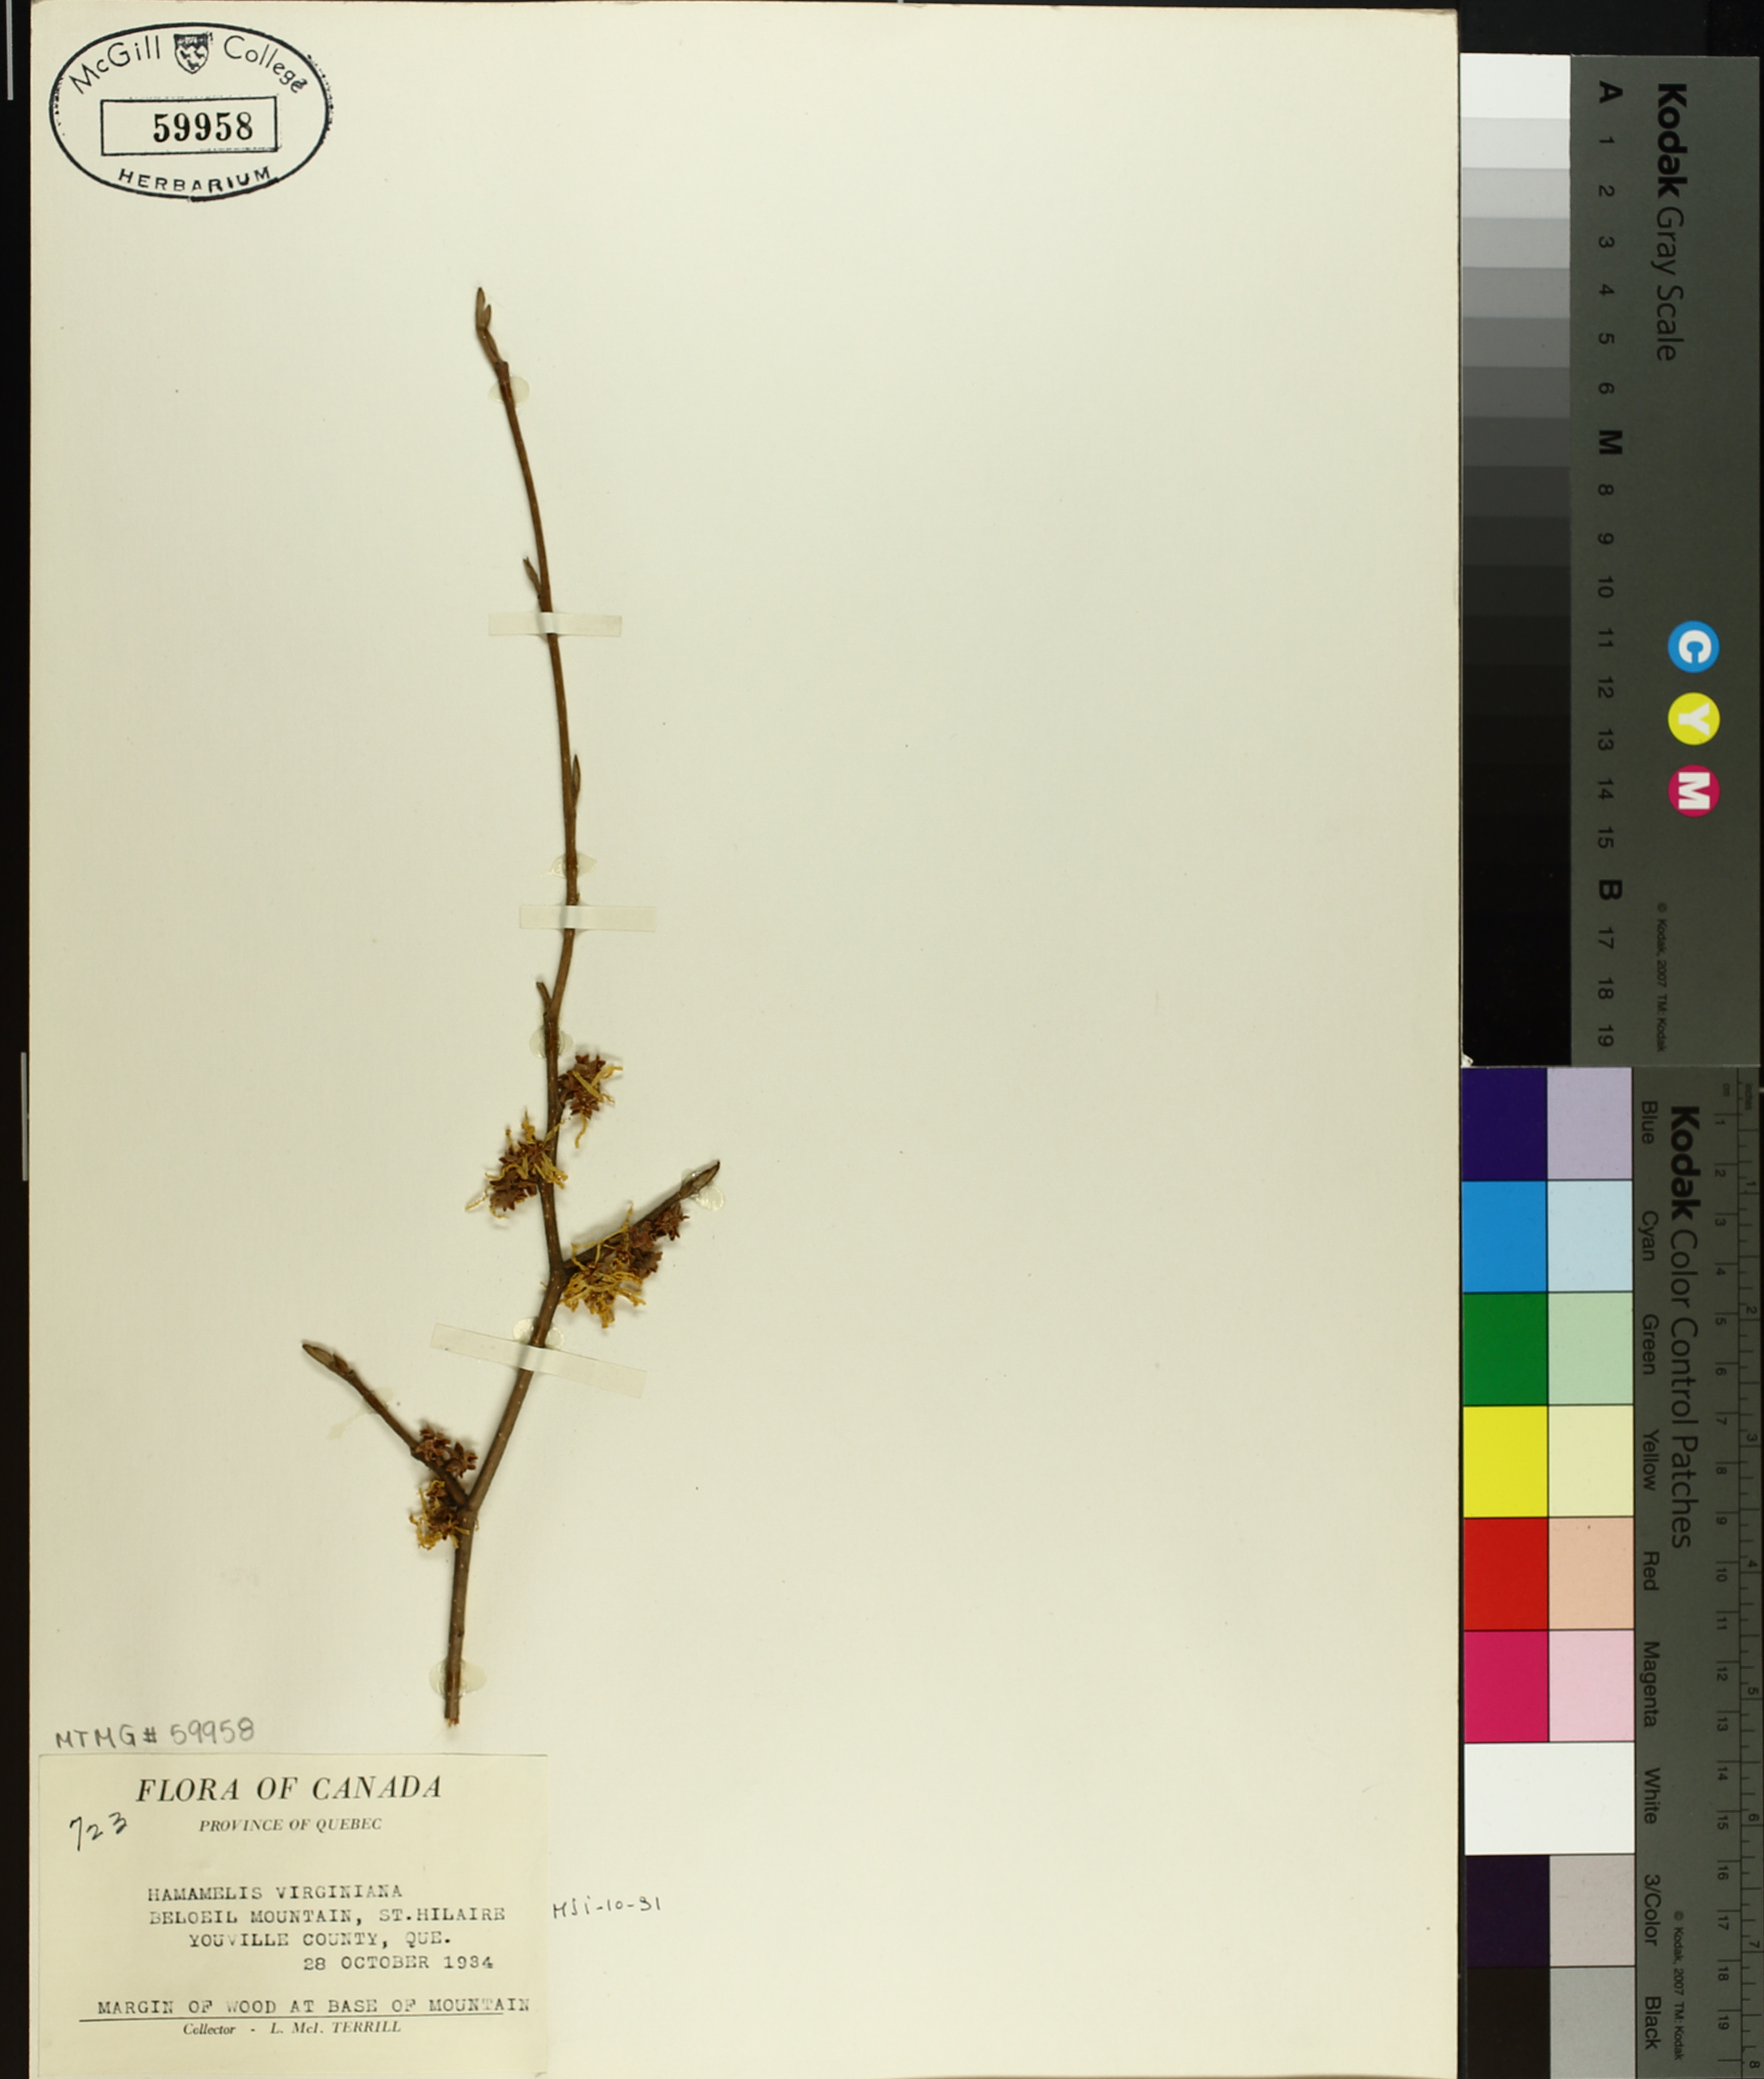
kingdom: Plantae
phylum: Tracheophyta
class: Magnoliopsida
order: Saxifragales
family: Hamamelidaceae
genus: Hamamelis
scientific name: Hamamelis virginiana
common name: Witch-hazel
